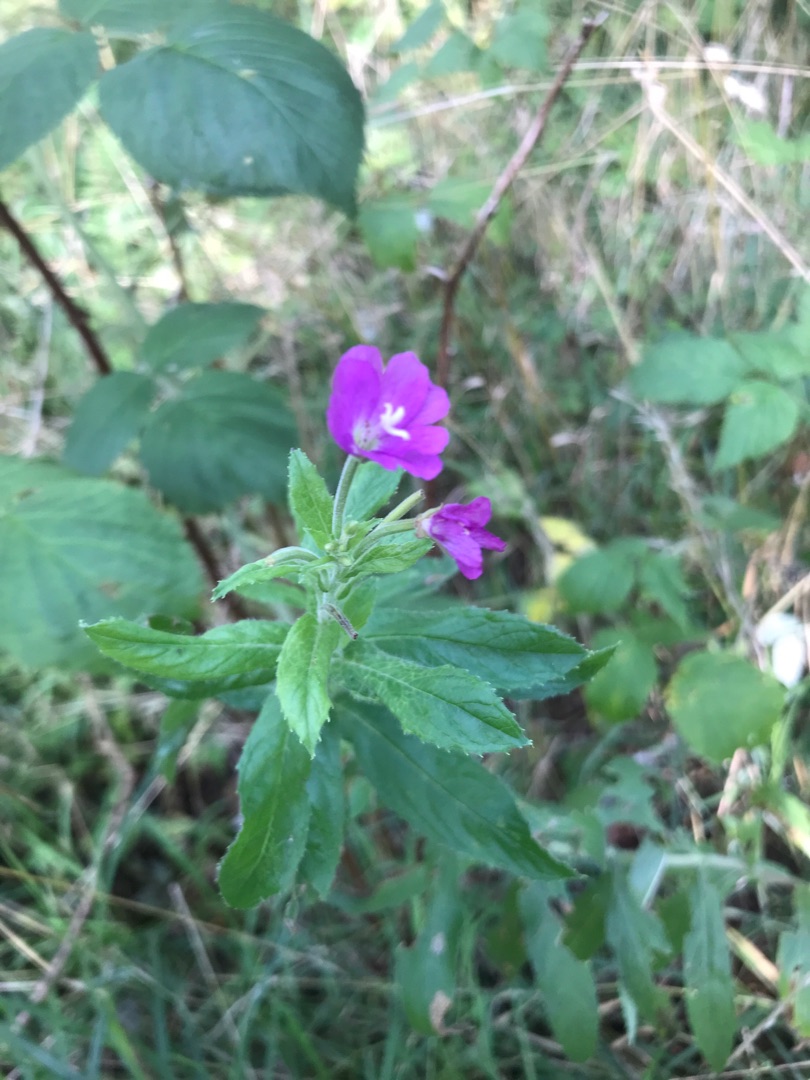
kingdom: Plantae
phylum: Tracheophyta
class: Magnoliopsida
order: Myrtales
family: Onagraceae
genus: Epilobium
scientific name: Epilobium hirsutum
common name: Lådden dueurt
